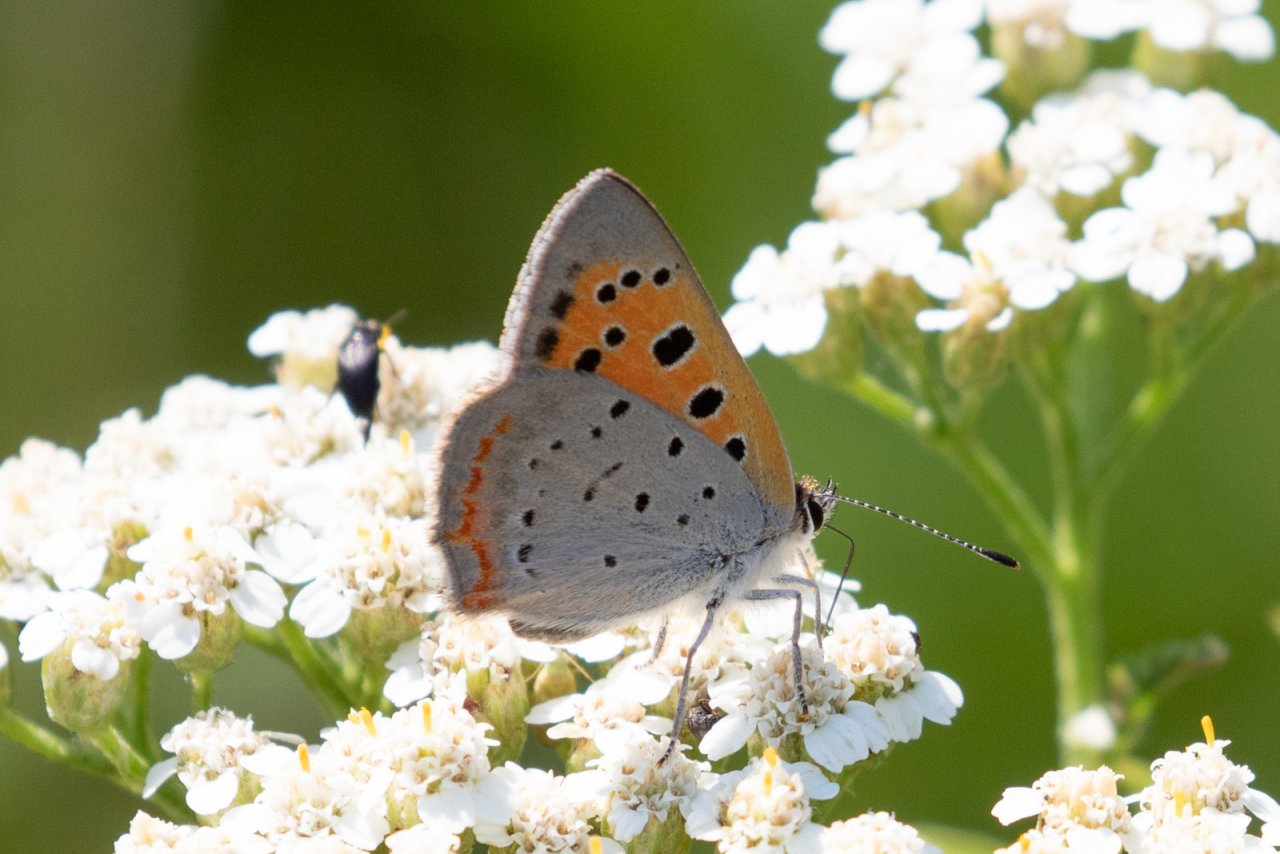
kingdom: Animalia
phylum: Arthropoda
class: Insecta
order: Lepidoptera
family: Lycaenidae
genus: Lycaena
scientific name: Lycaena phlaeas
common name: American Copper
